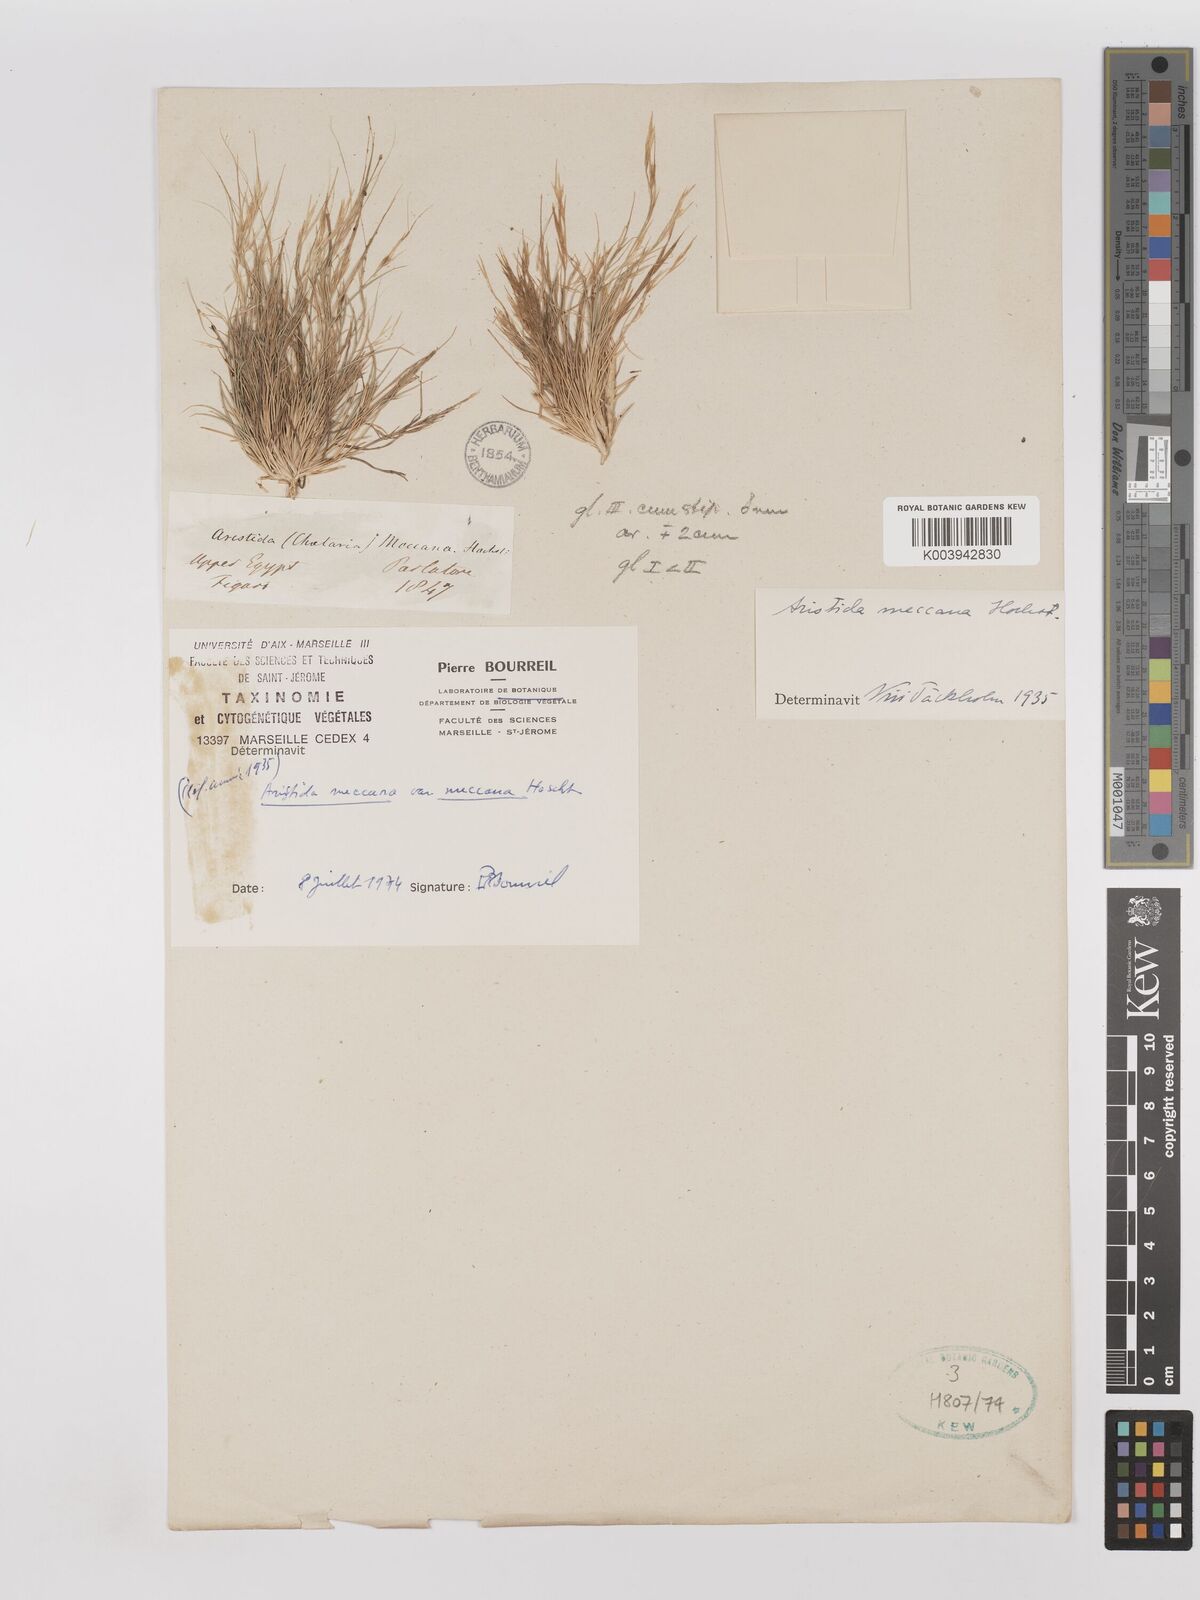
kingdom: Plantae
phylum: Tracheophyta
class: Liliopsida
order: Poales
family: Poaceae
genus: Aristida
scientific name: Aristida mutabilis
